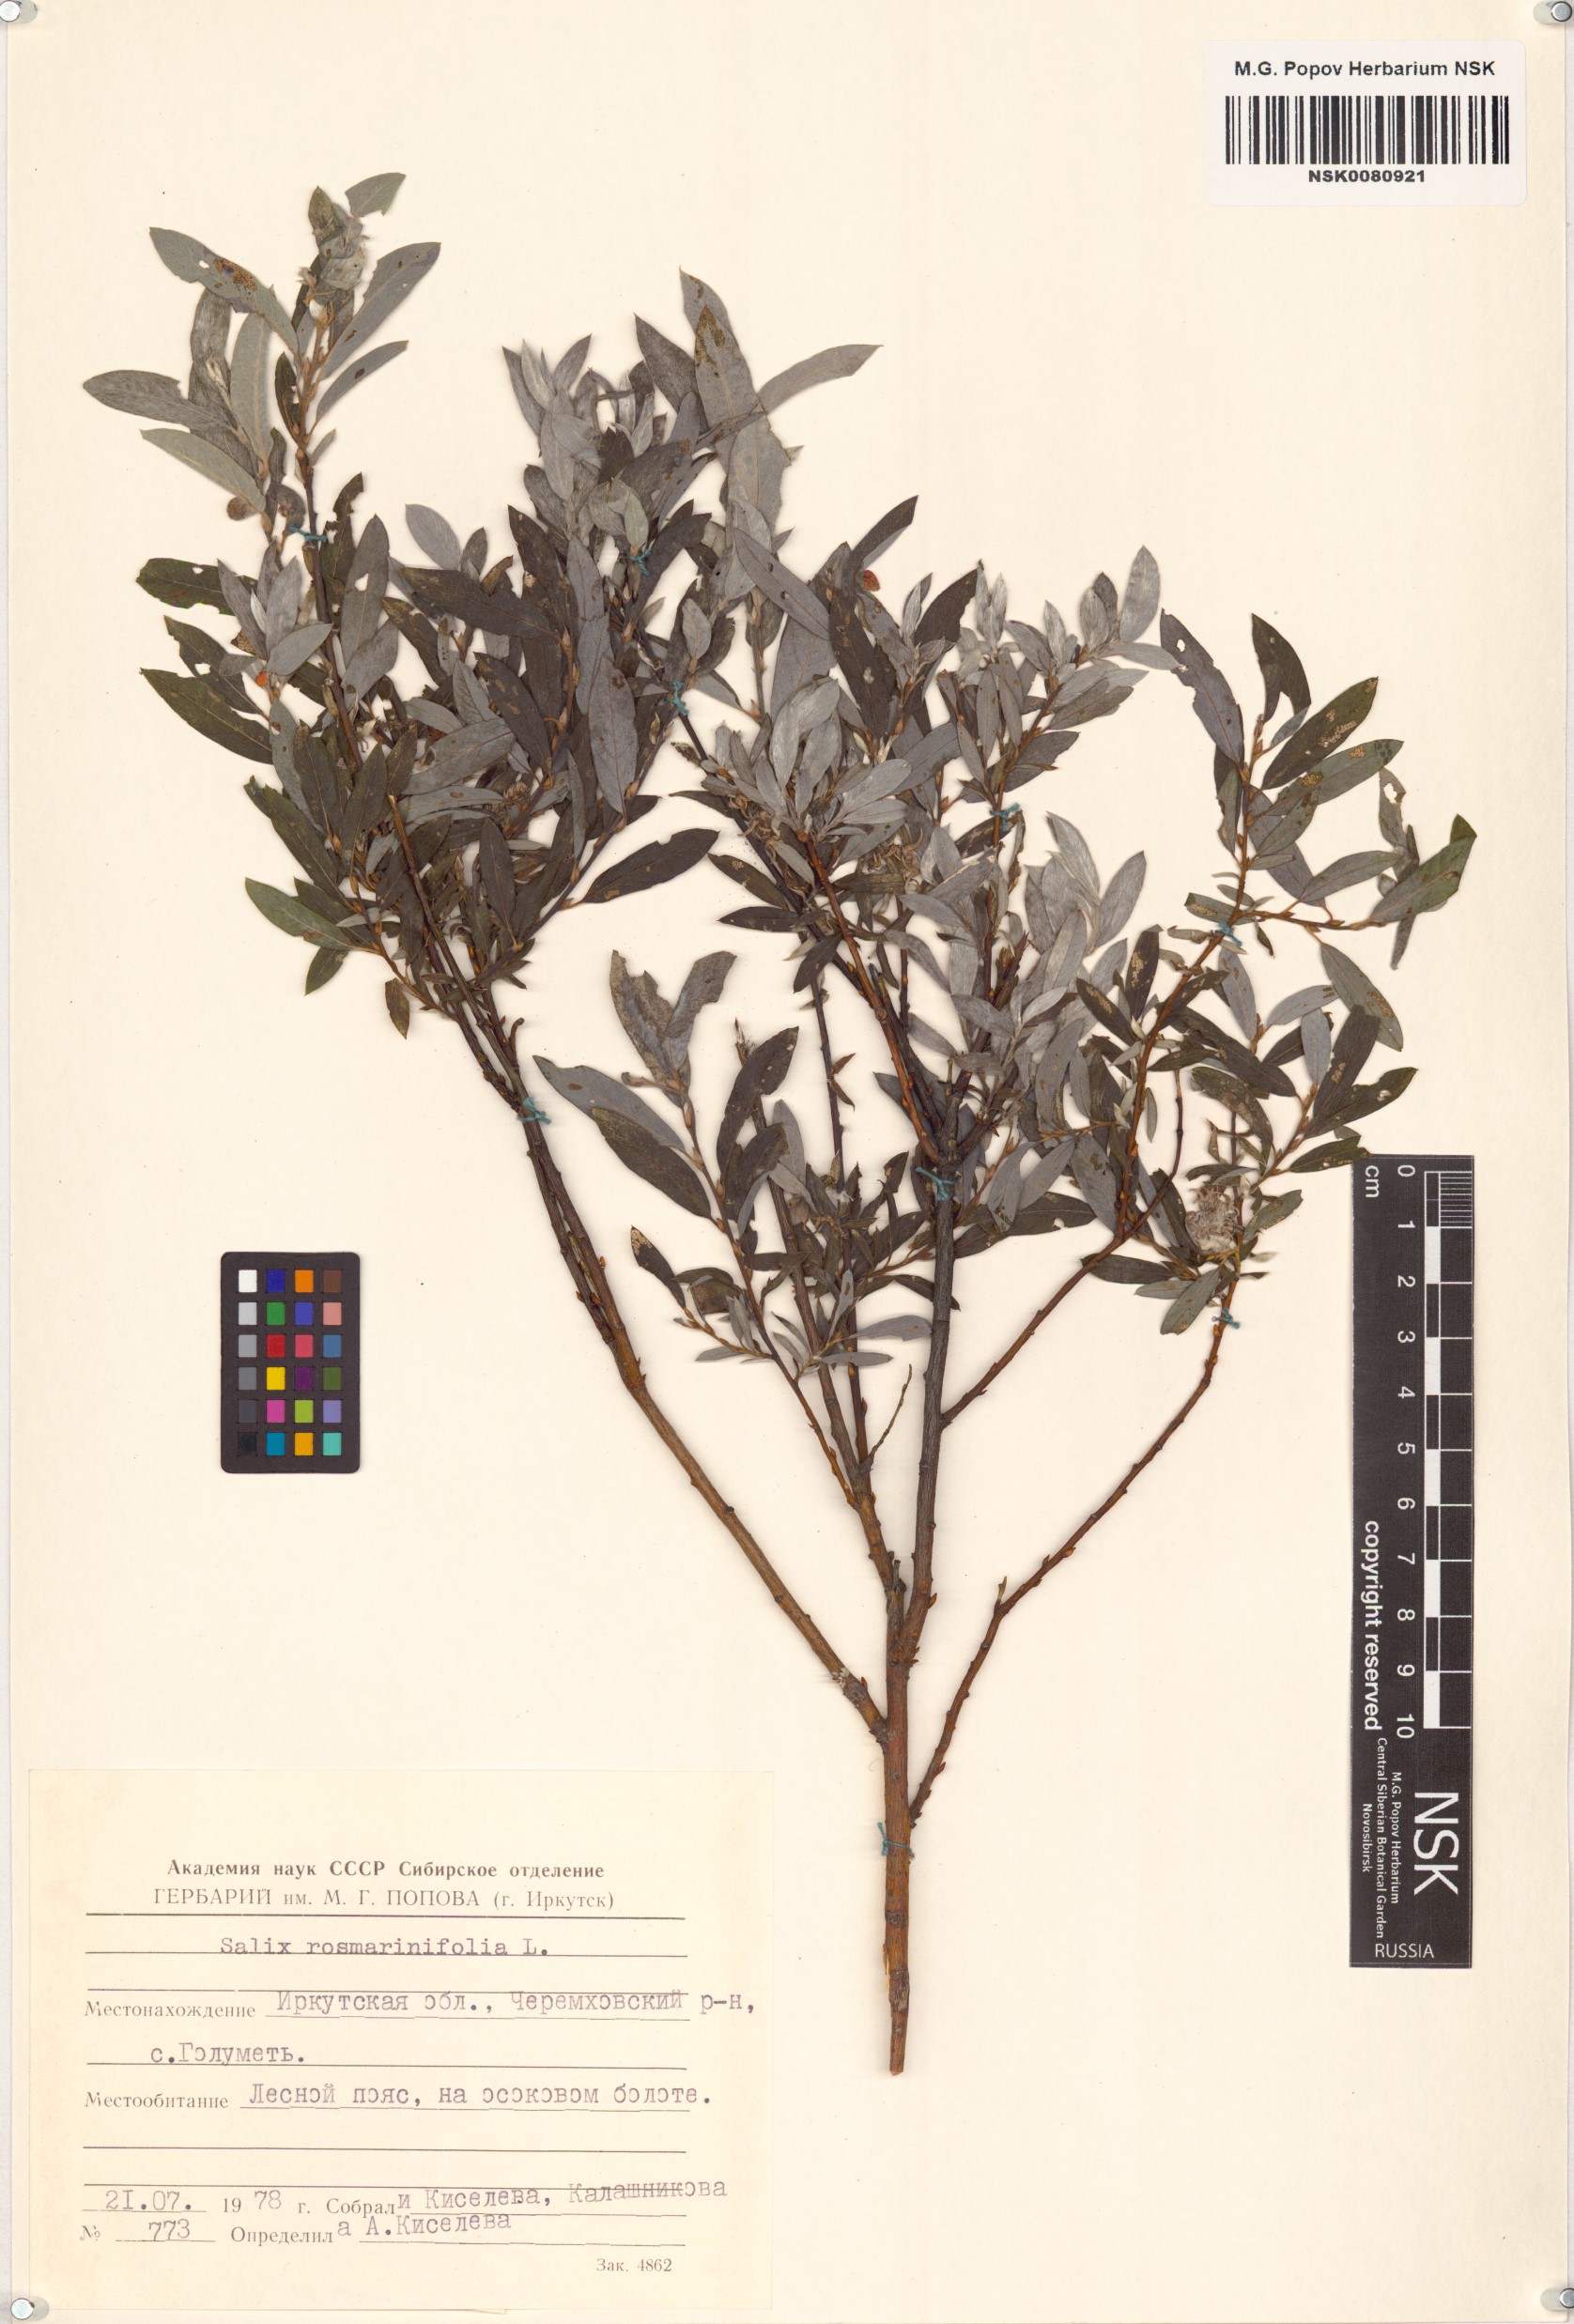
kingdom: Plantae
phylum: Tracheophyta
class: Magnoliopsida
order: Malpighiales
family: Salicaceae
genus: Salix
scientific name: Salix rosmarinifolia
